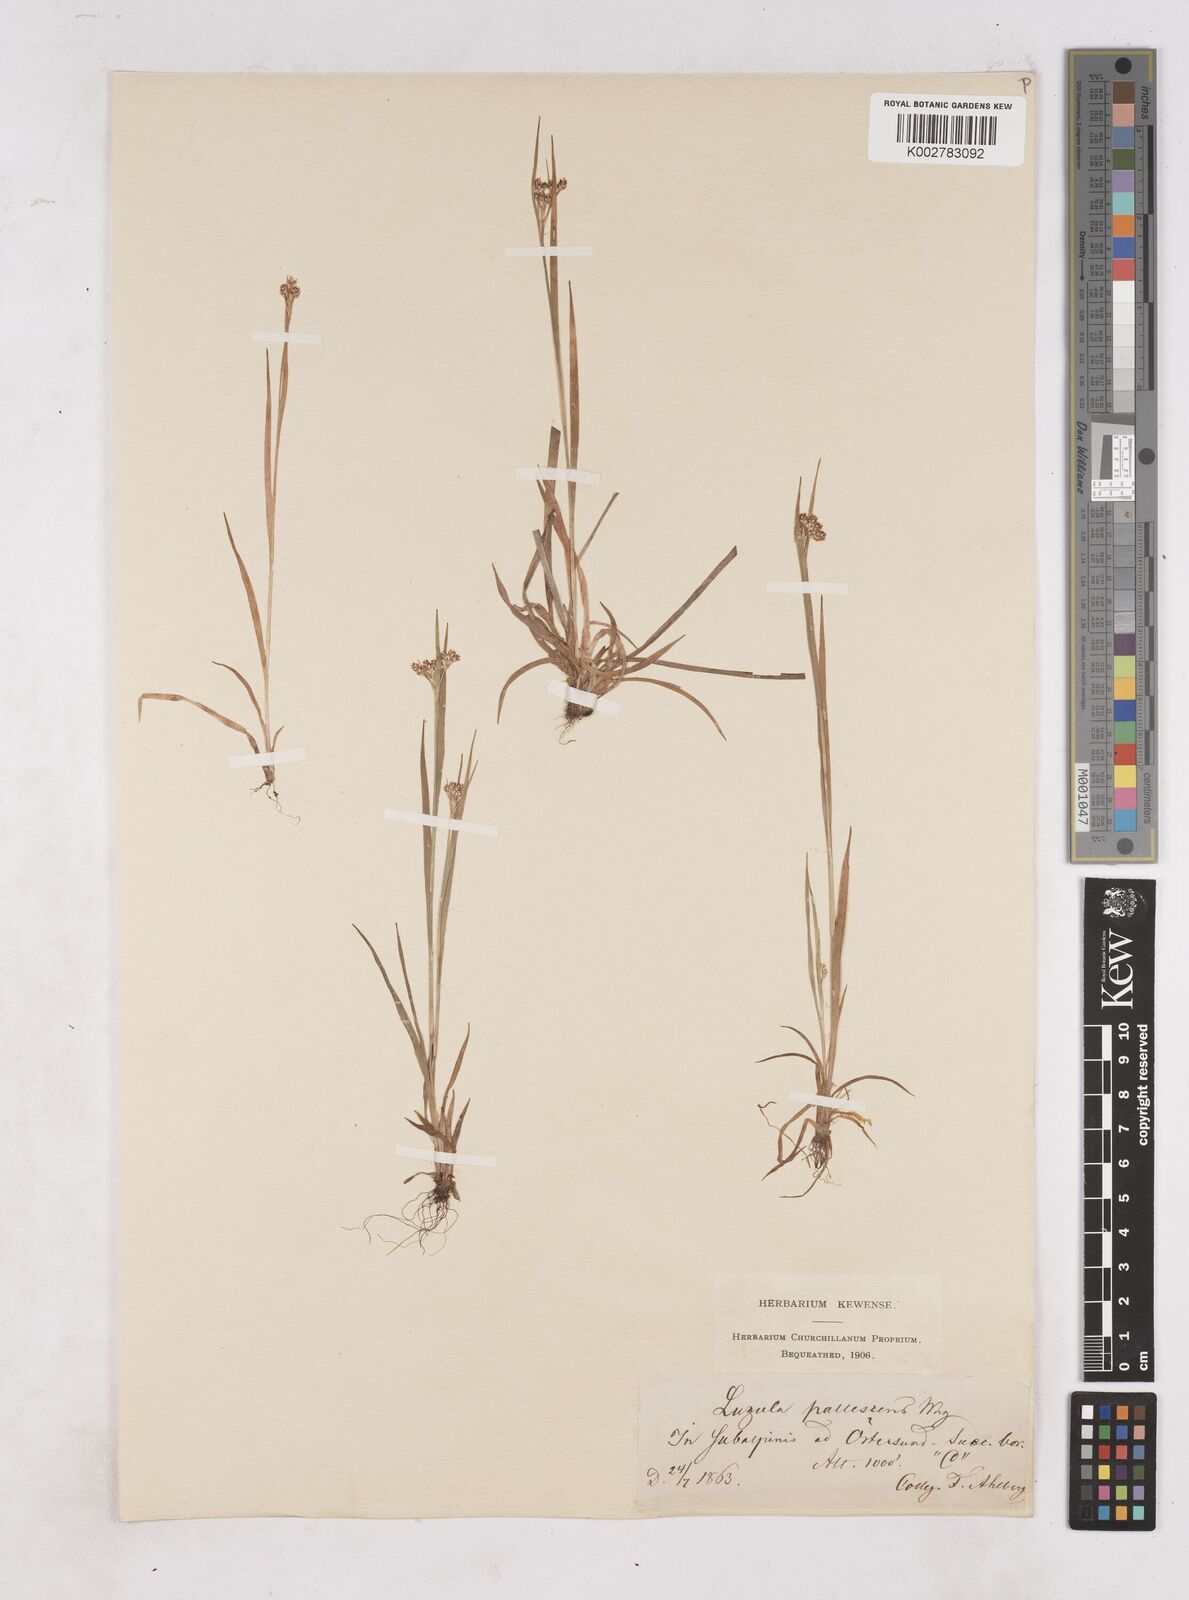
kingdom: Plantae
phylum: Tracheophyta
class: Liliopsida
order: Poales
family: Juncaceae
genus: Luzula
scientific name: Luzula pallescens
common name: Fen wood-rush
